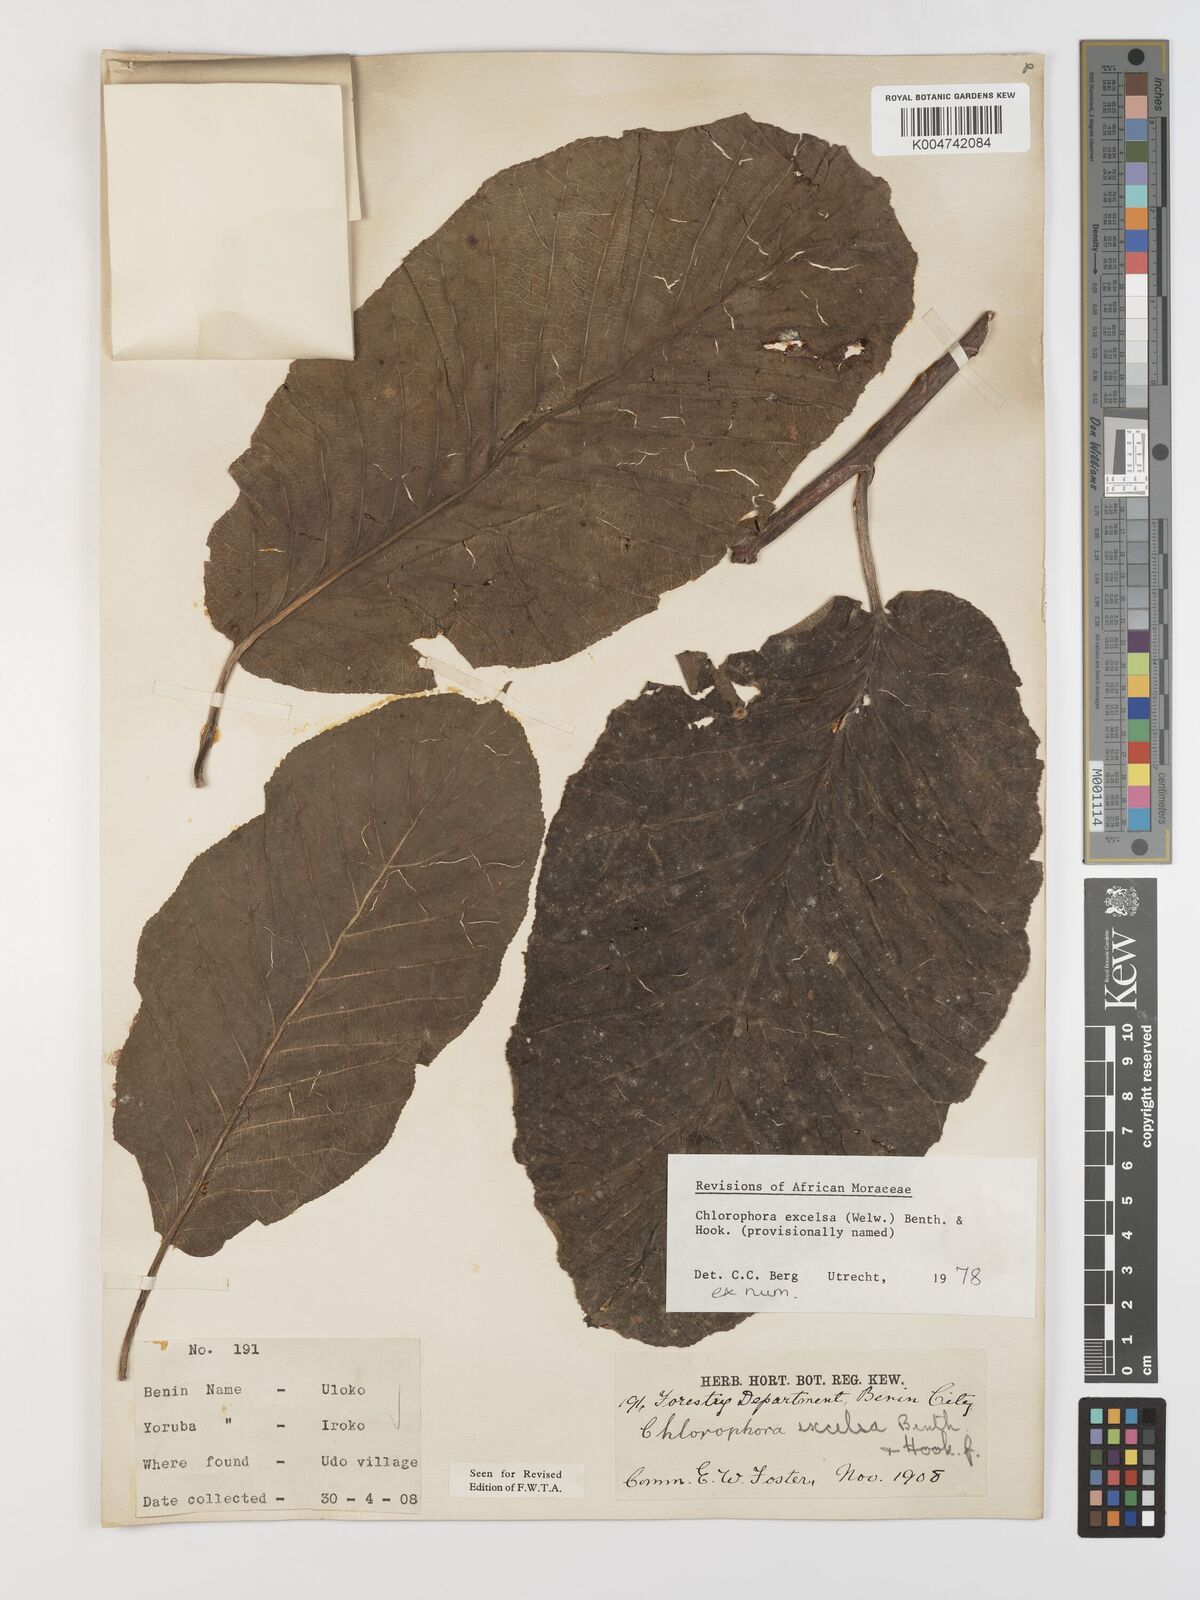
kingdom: Plantae
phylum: Tracheophyta
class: Magnoliopsida
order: Rosales
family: Moraceae
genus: Milicia
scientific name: Milicia excelsa
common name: African teak
